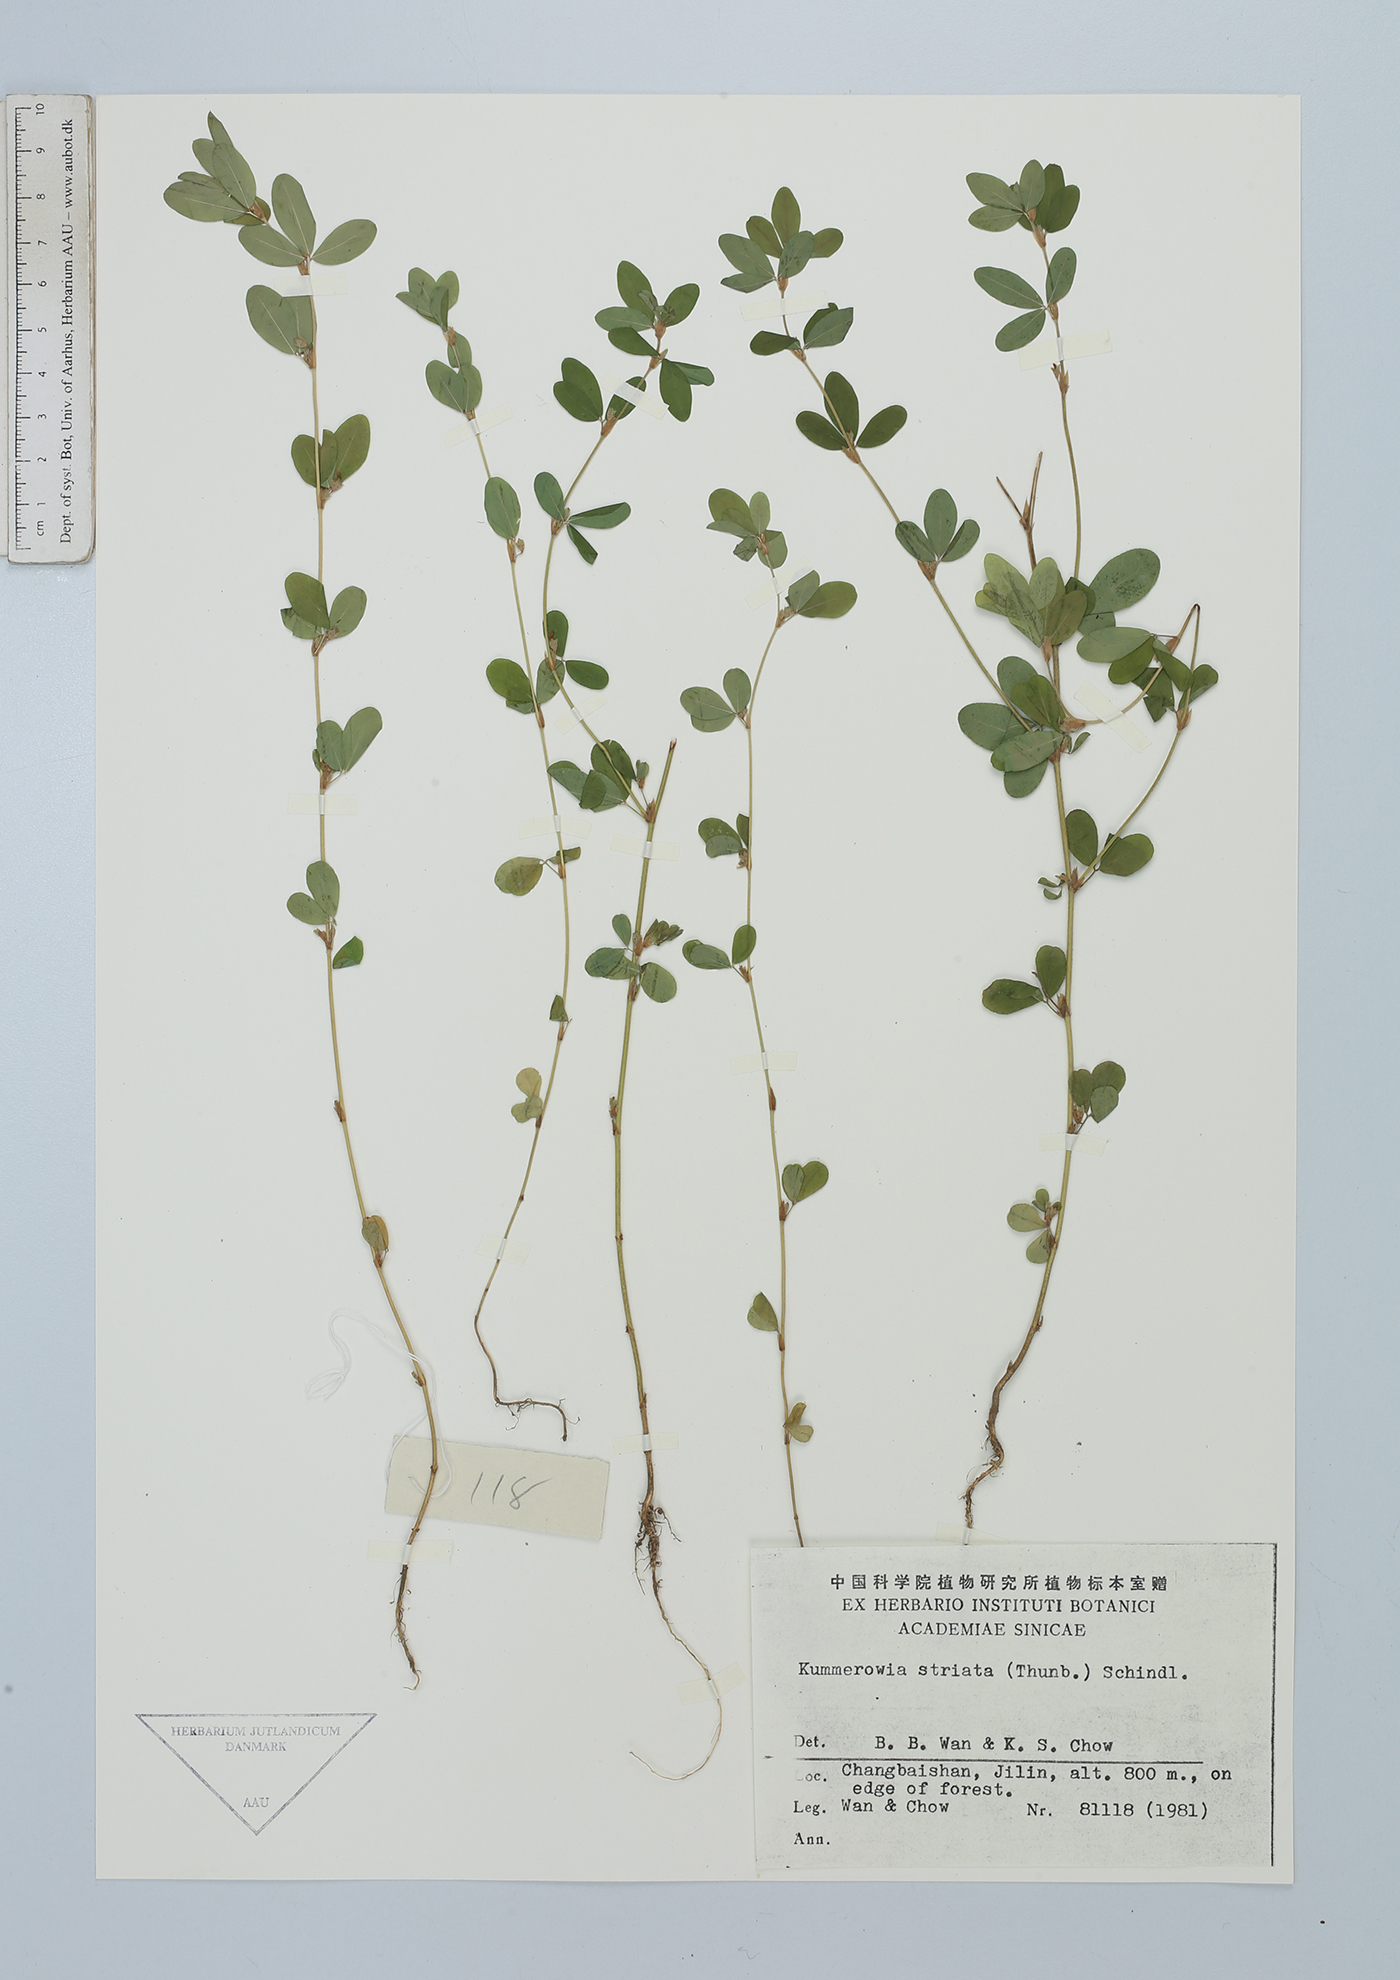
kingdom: Plantae
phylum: Tracheophyta
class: Magnoliopsida
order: Fabales
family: Fabaceae
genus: Kummerowia
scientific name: Kummerowia striata
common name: Japanese clover
